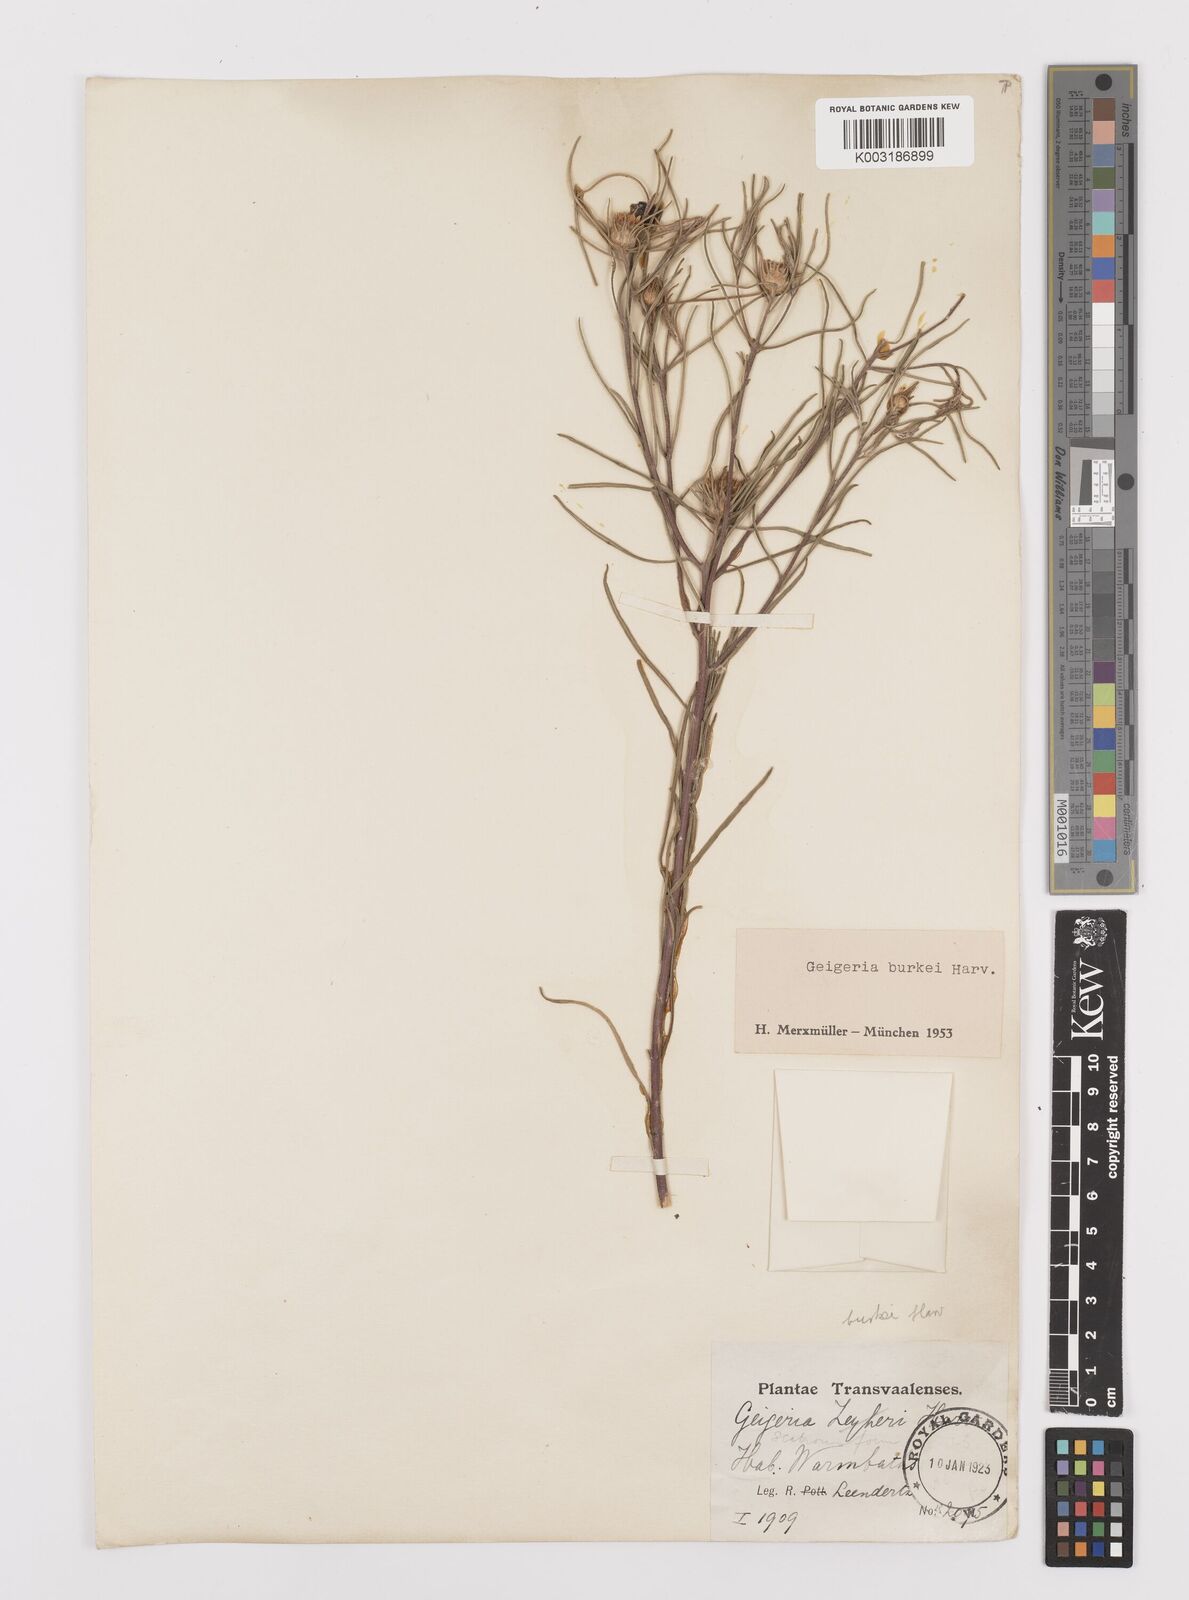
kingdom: Plantae
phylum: Tracheophyta
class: Magnoliopsida
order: Asterales
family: Asteraceae
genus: Geigeria
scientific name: Geigeria burkei
